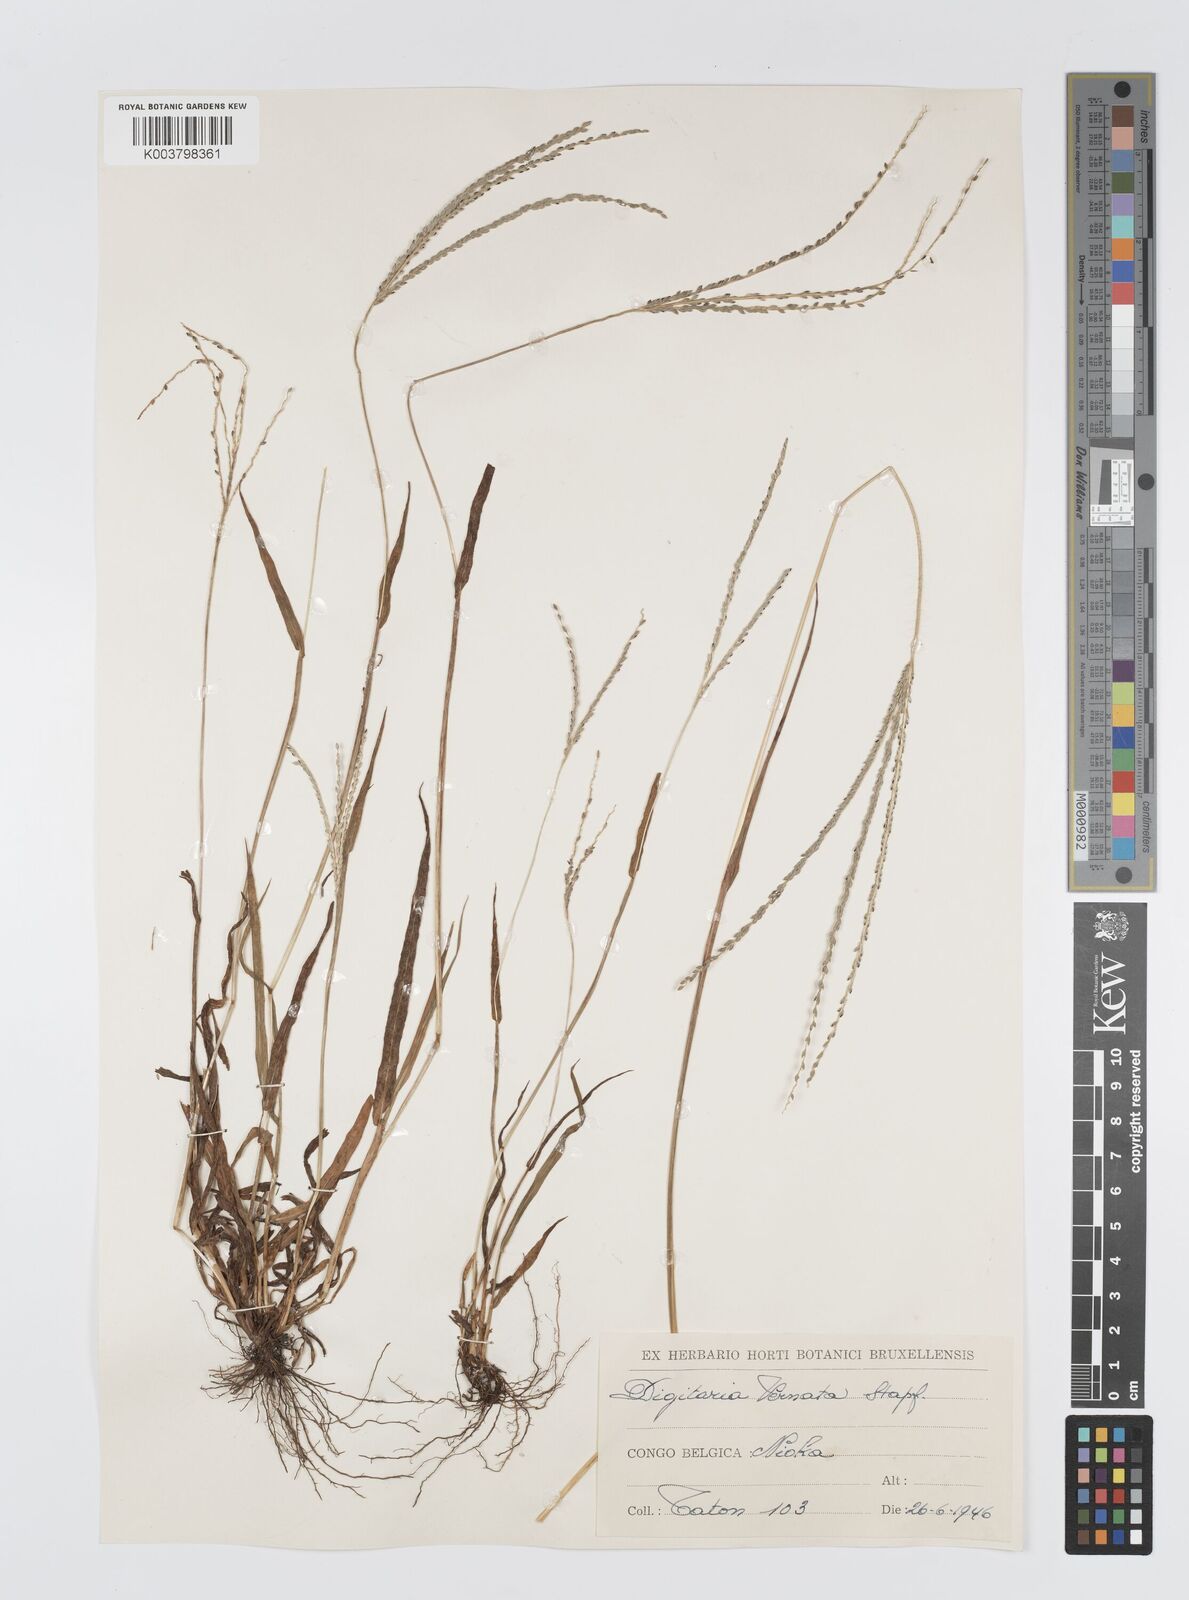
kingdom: Plantae
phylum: Tracheophyta
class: Liliopsida
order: Poales
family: Poaceae
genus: Digitaria
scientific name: Digitaria ternata
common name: Blackseed crabgrass
